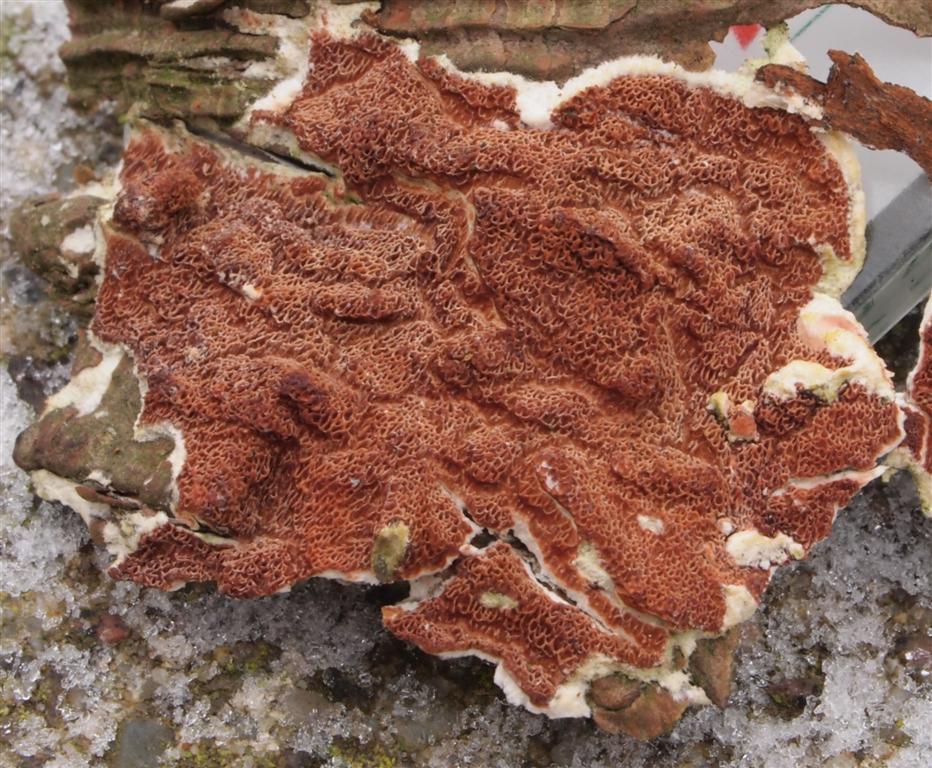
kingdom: Fungi
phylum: Basidiomycota
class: Agaricomycetes
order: Polyporales
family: Irpicaceae
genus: Meruliopsis
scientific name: Meruliopsis taxicola
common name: purpurbrun foldporesvamp
